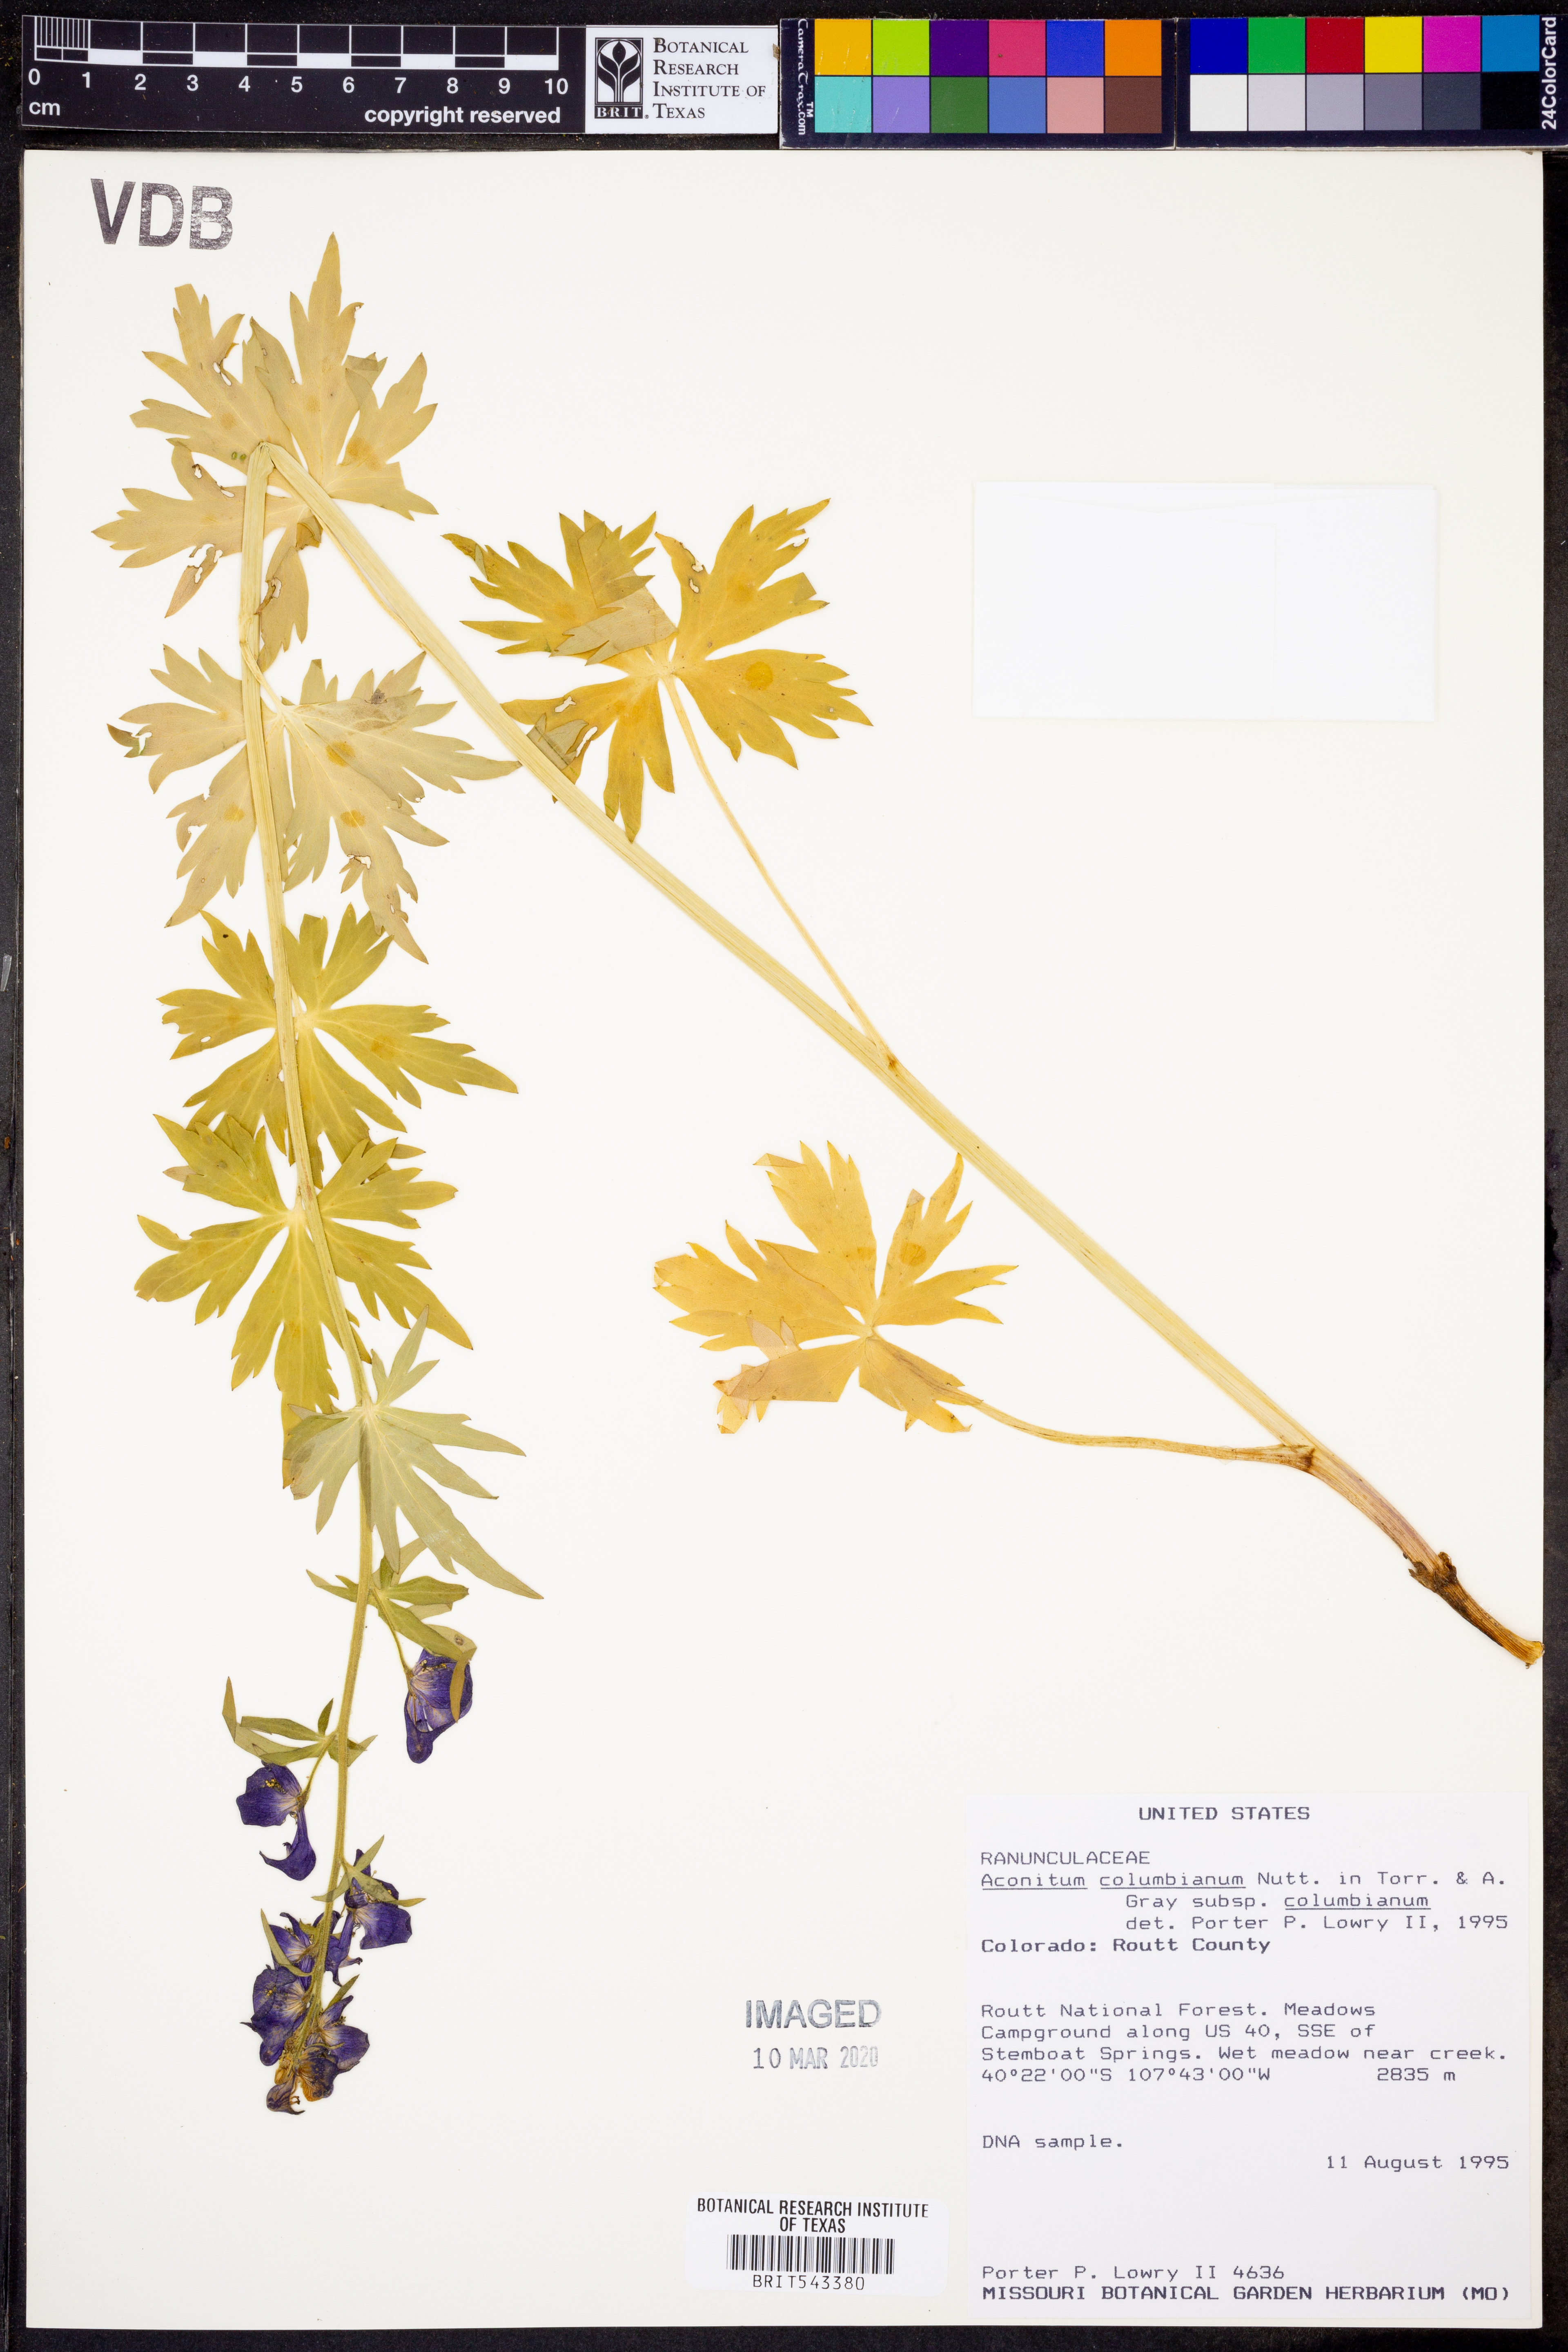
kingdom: Plantae
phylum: Tracheophyta
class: Magnoliopsida
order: Ranunculales
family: Ranunculaceae
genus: Aconitum
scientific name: Aconitum columbianum
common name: Columbia aconite
